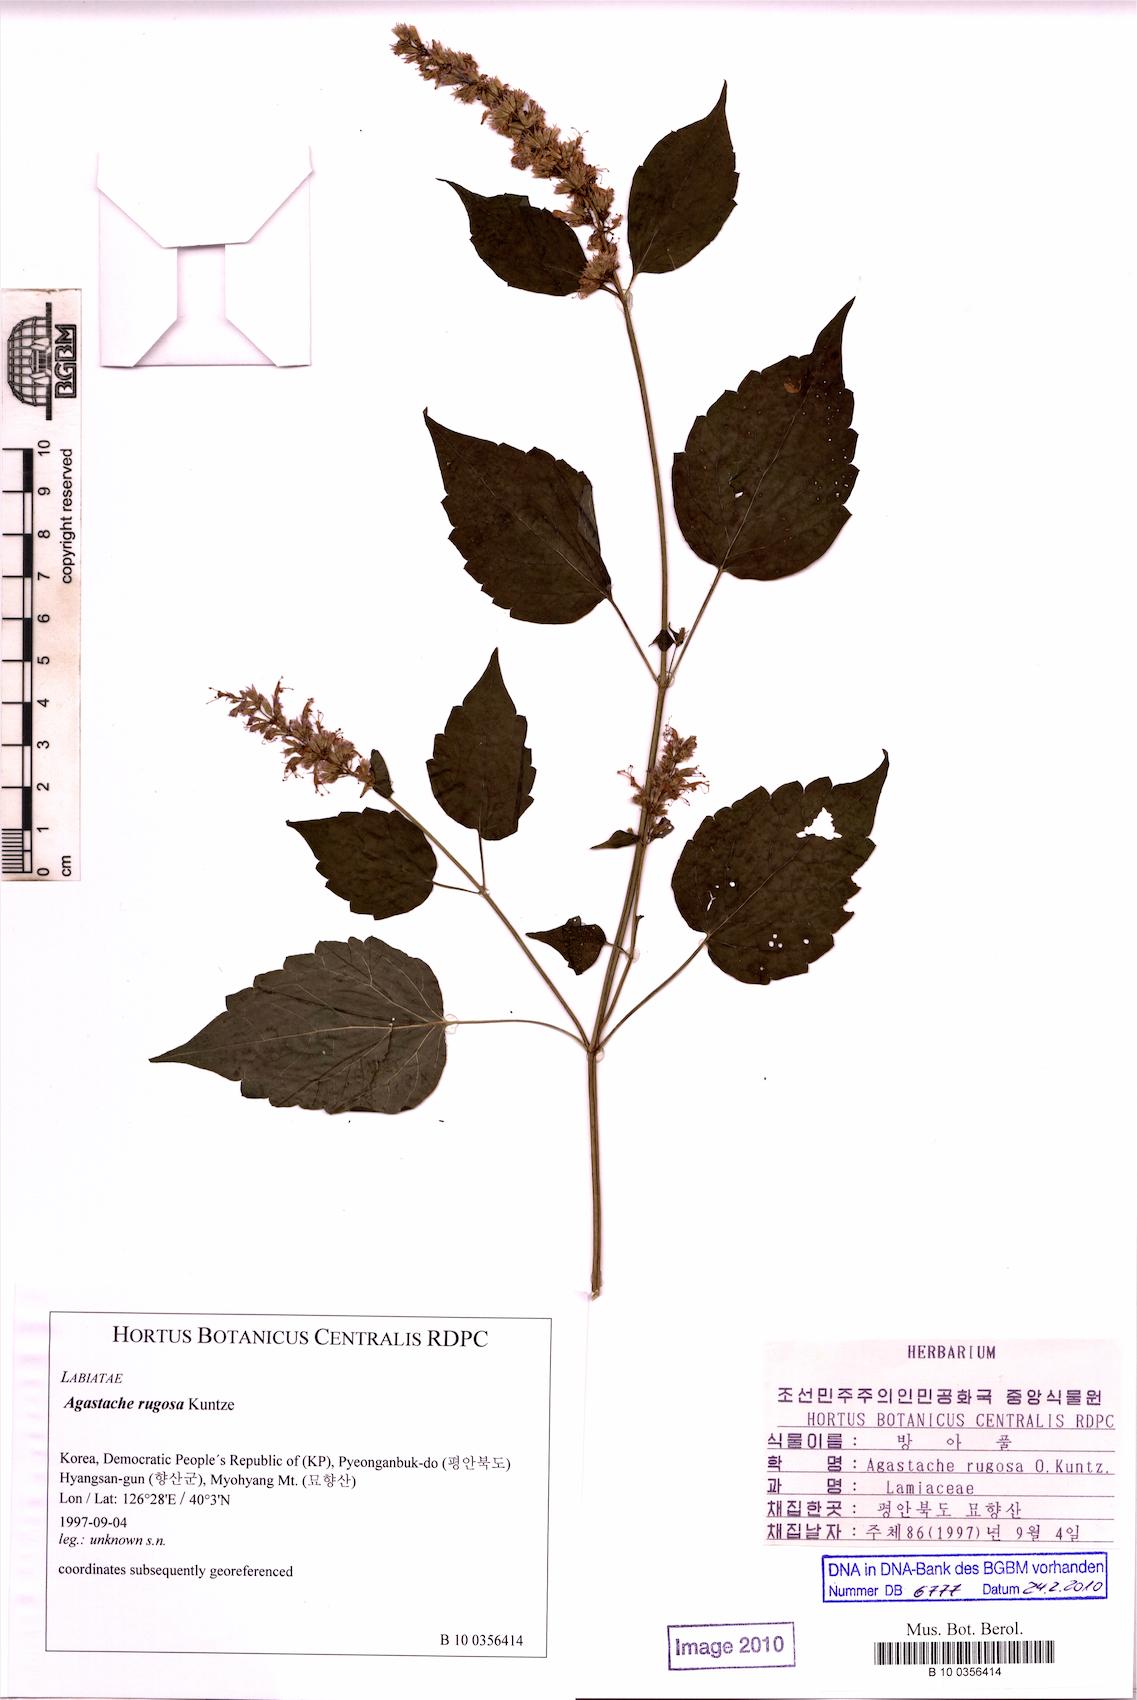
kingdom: Plantae
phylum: Tracheophyta
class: Magnoliopsida
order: Lamiales
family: Lamiaceae
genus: Agastache
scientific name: Agastache rugosa
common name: Mint
